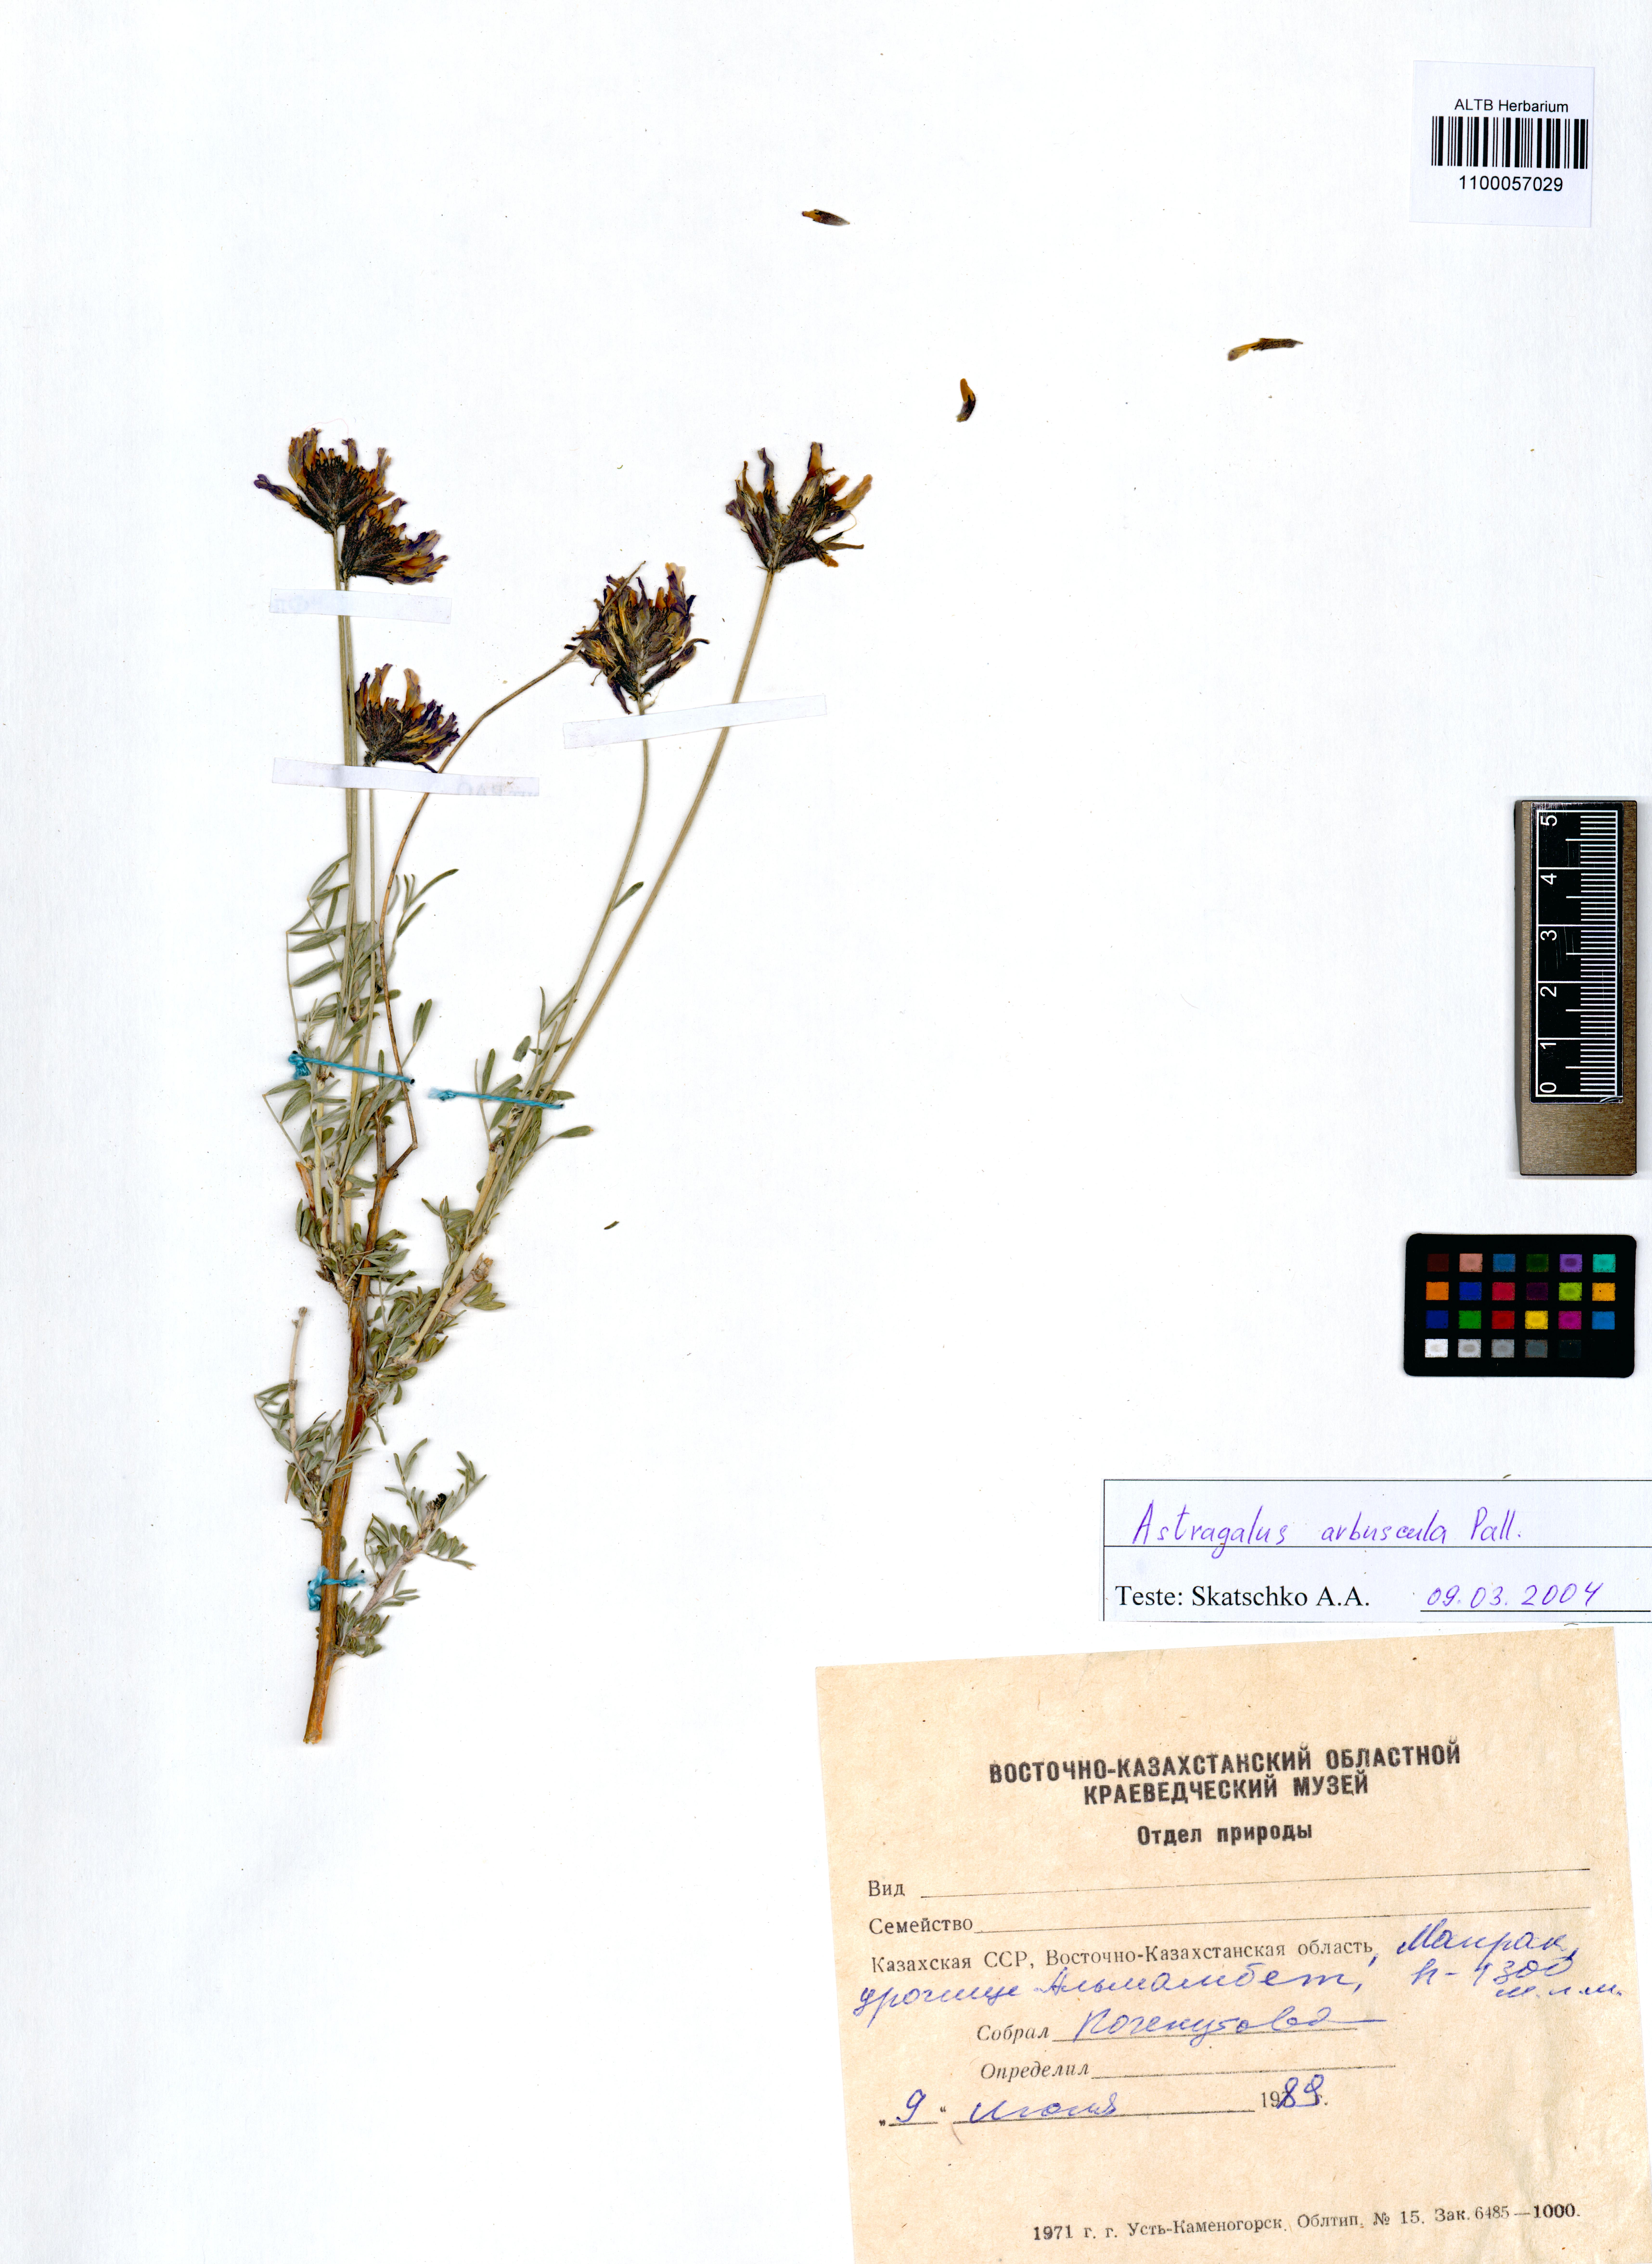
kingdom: Plantae
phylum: Tracheophyta
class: Magnoliopsida
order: Fabales
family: Fabaceae
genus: Astragalus
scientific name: Astragalus arbuscula
